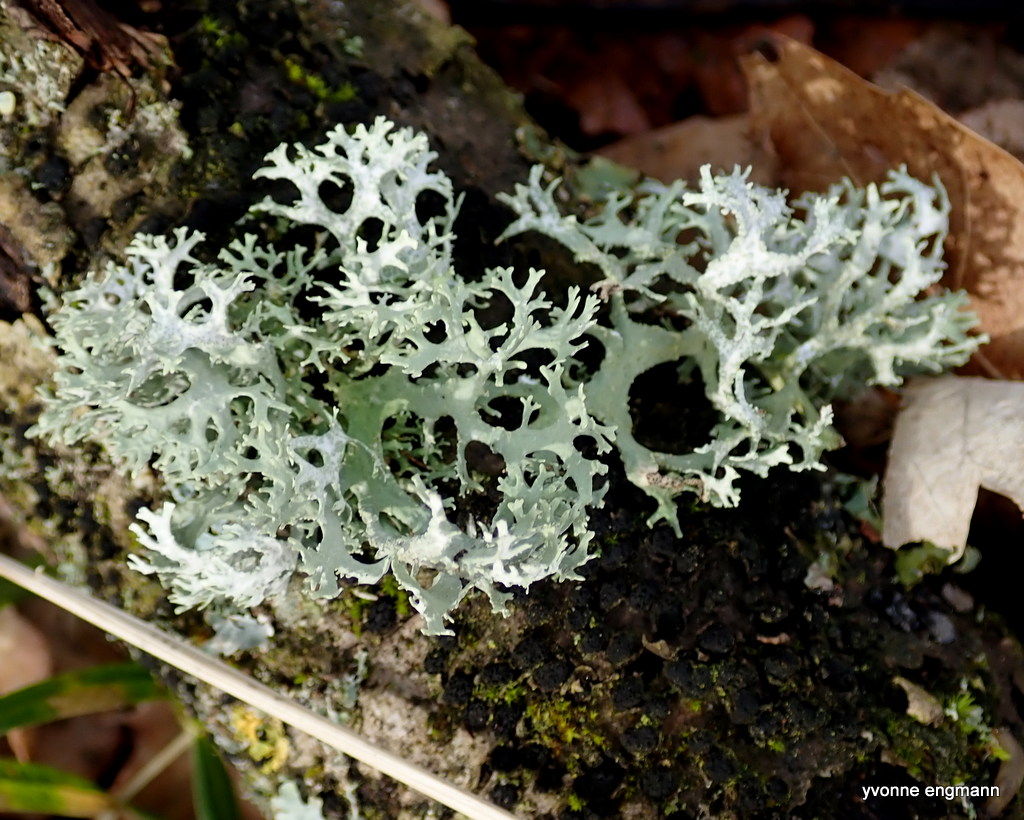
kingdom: Fungi
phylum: Ascomycota
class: Lecanoromycetes
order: Lecanorales
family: Parmeliaceae
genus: Evernia
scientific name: Evernia prunastri
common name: almindelig slåenlav
